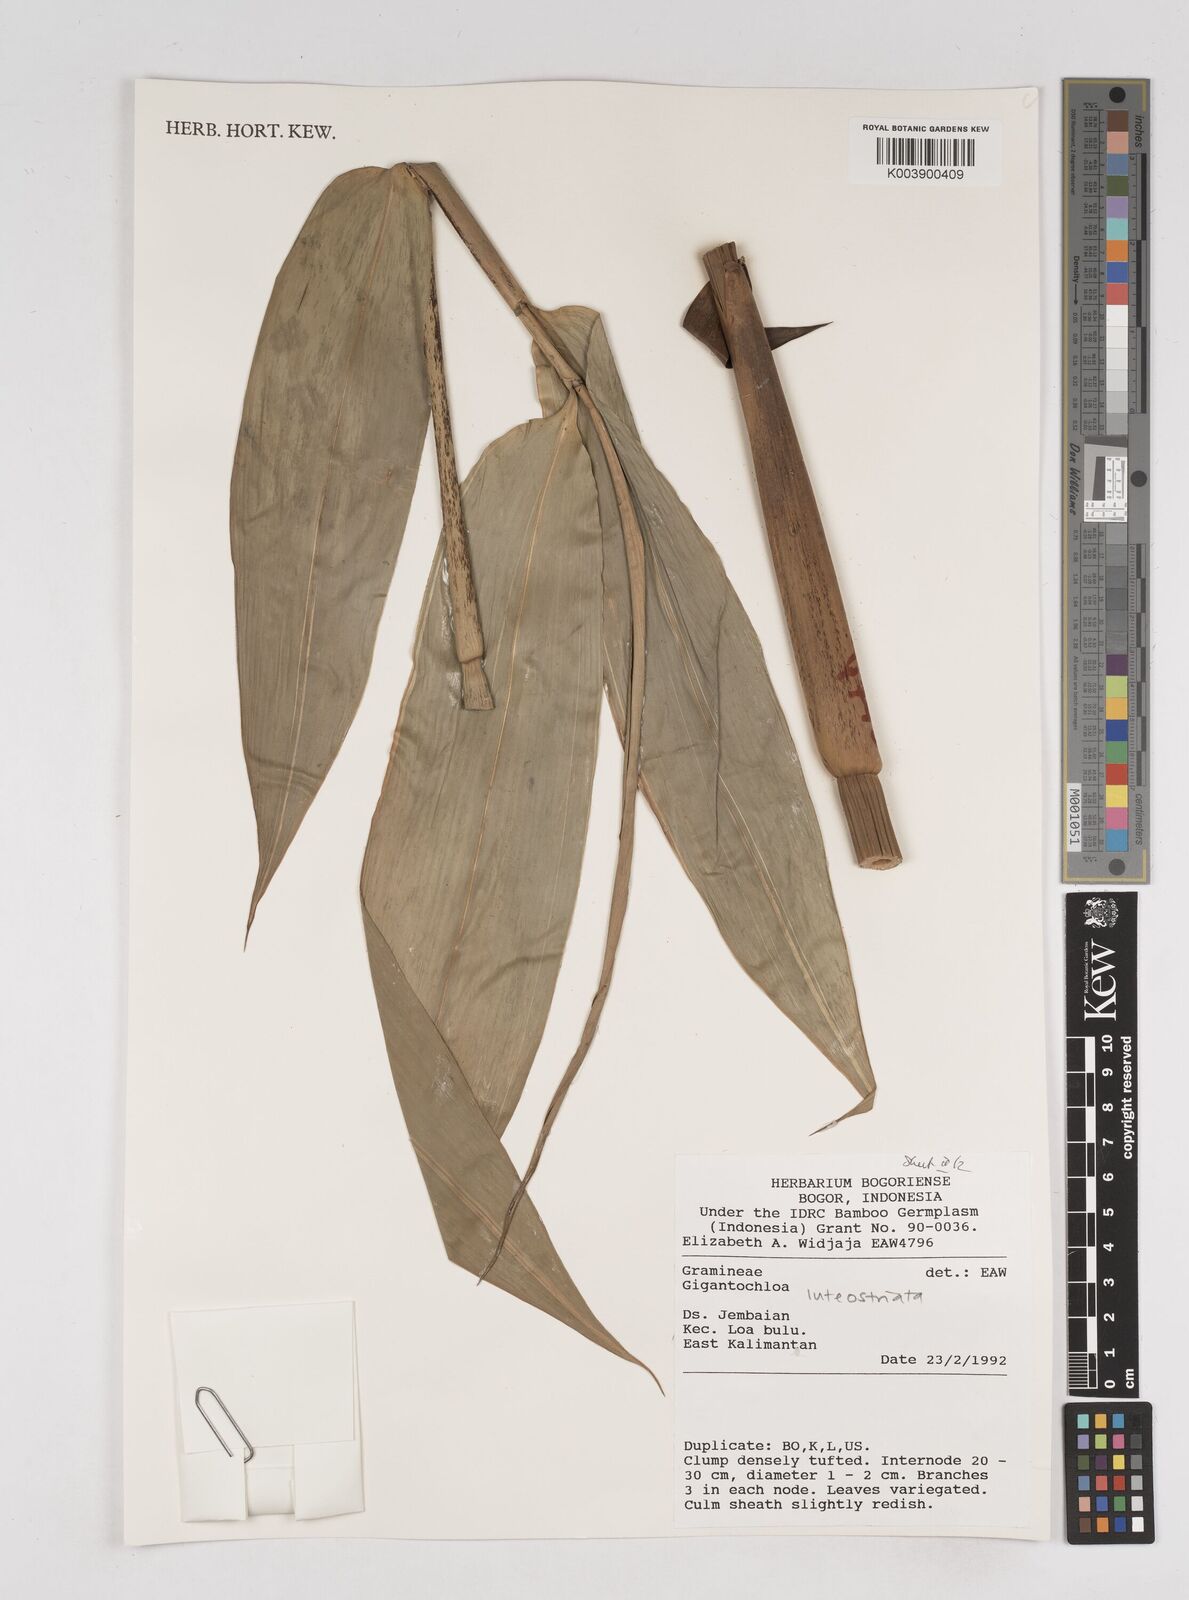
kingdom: Plantae
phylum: Tracheophyta
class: Liliopsida
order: Poales
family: Poaceae
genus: Gigantochloa
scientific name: Gigantochloa luteostriata
